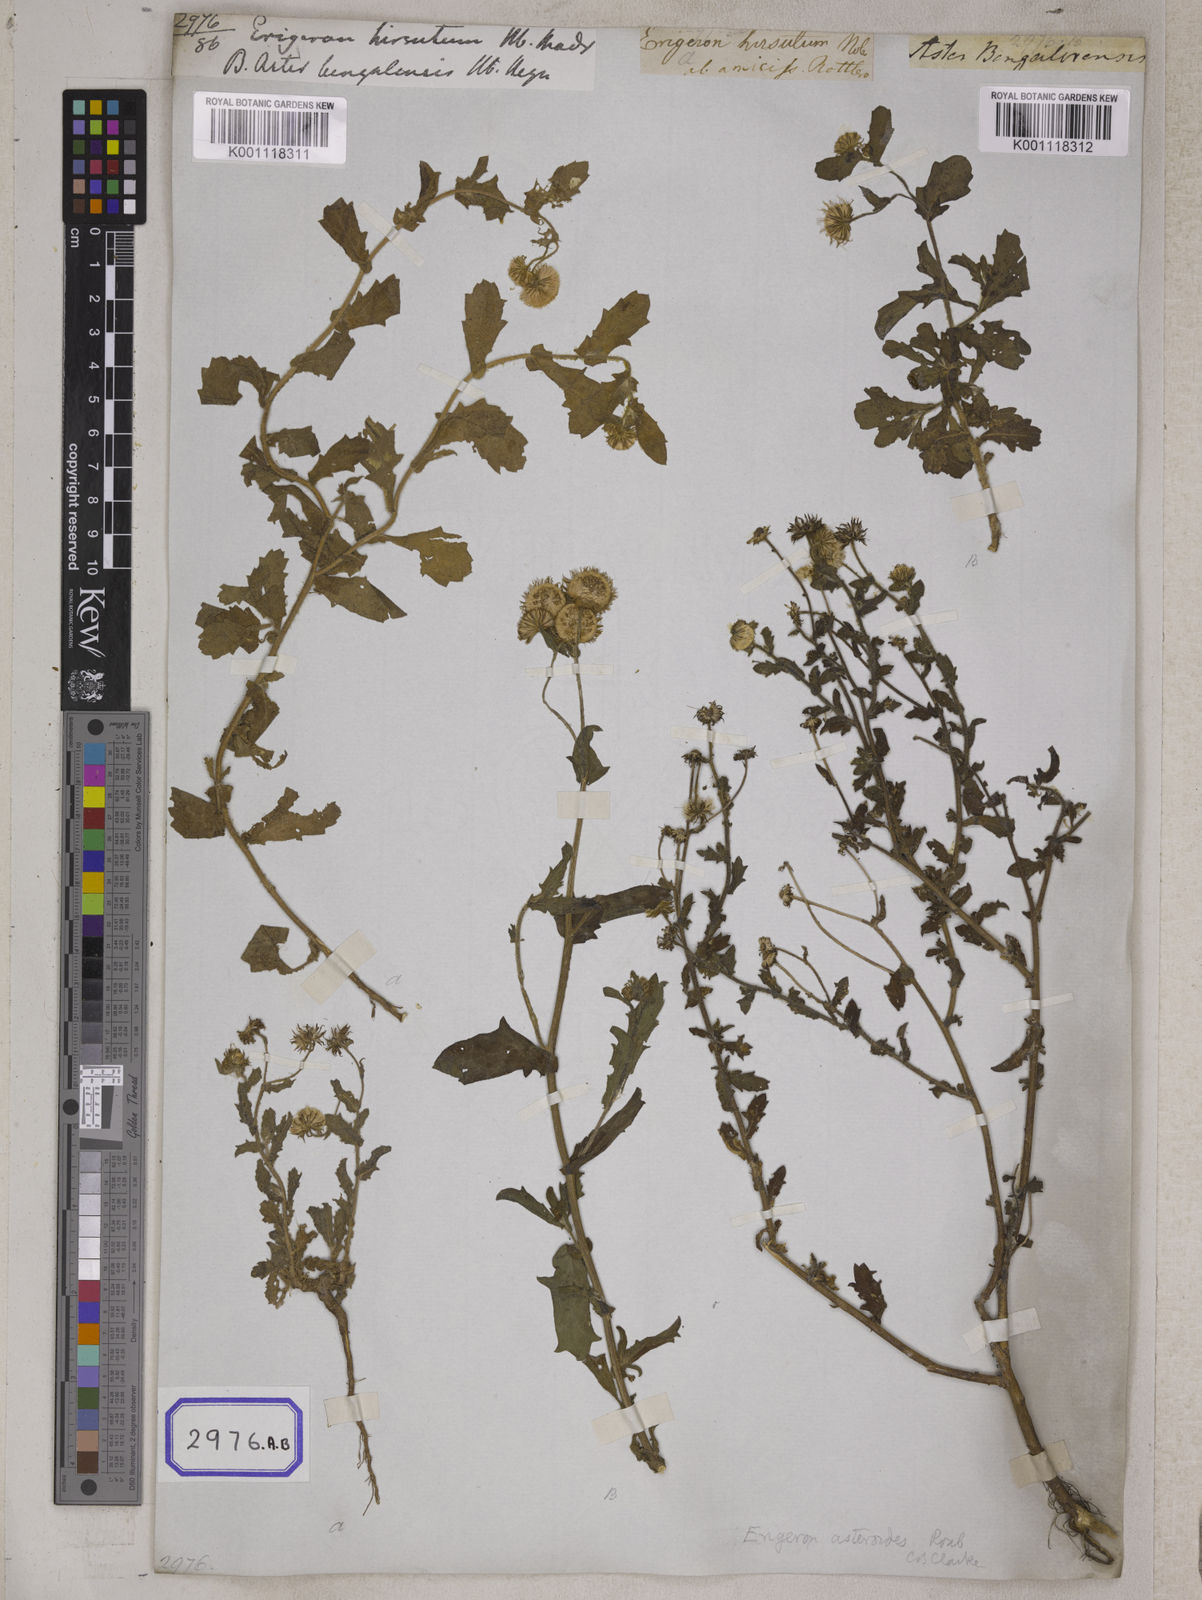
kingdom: Plantae
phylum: Tracheophyta
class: Magnoliopsida
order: Asterales
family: Asteraceae
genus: Erigeron
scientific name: Erigeron sublyratus
